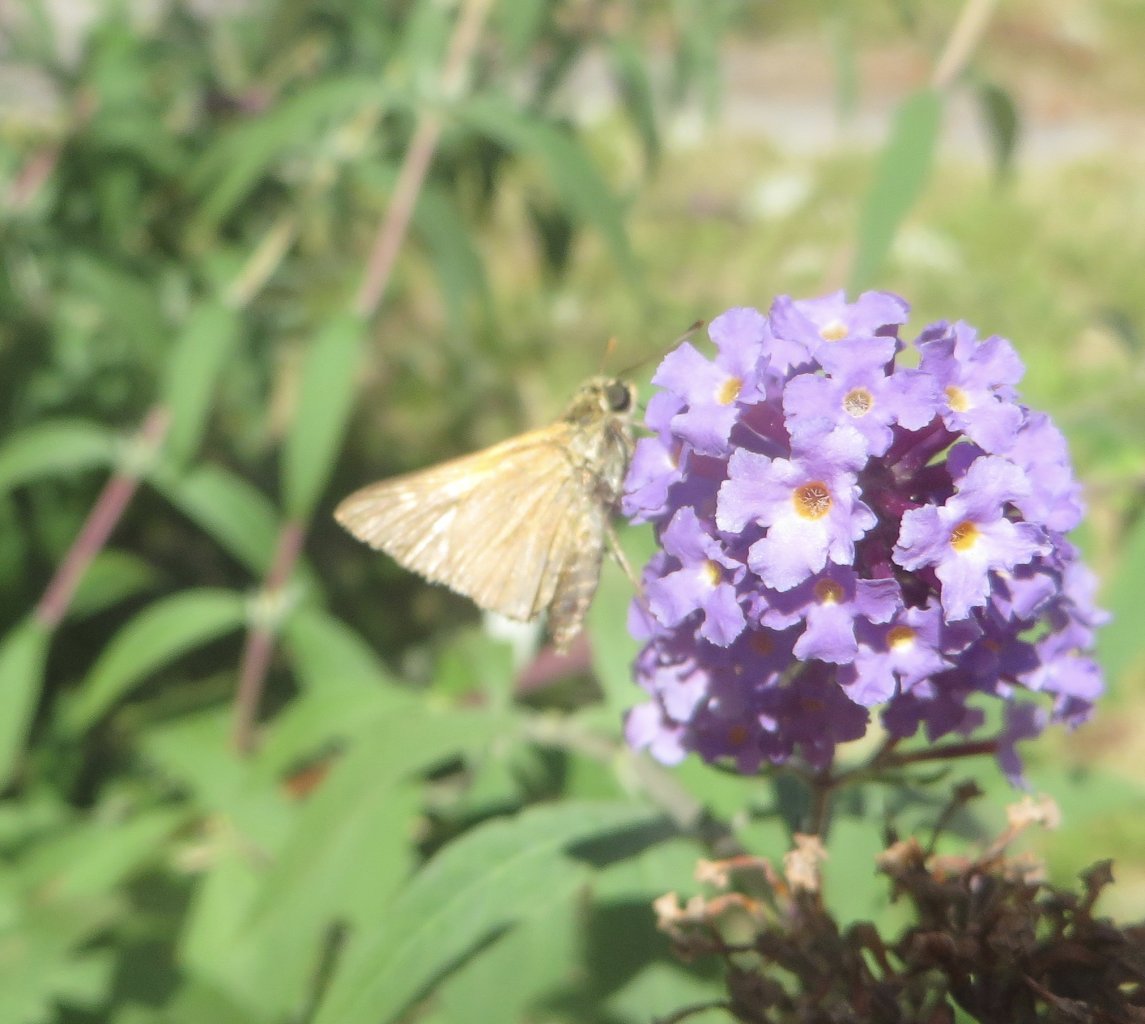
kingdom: Animalia
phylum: Arthropoda
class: Insecta
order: Lepidoptera
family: Hesperiidae
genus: Polites
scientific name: Polites themistocles
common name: Tawny-edged Skipper
